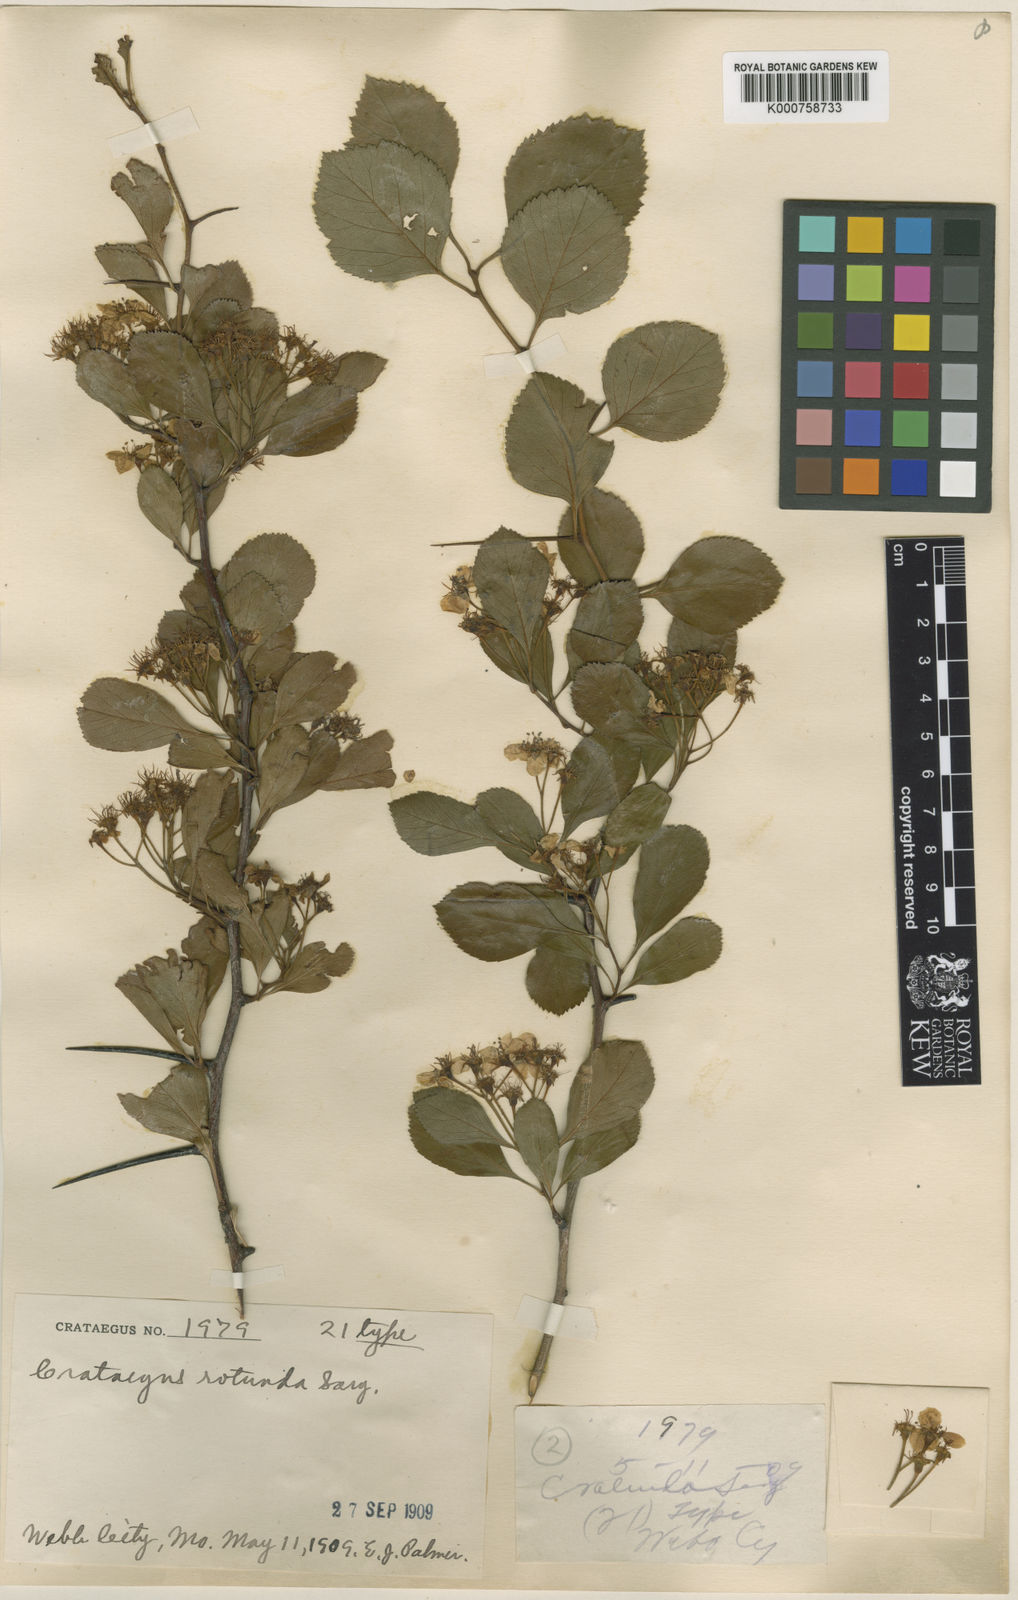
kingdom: Plantae
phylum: Tracheophyta
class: Magnoliopsida
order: Rosales
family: Rosaceae
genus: Crataegus
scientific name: Crataegus dodgei
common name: Dodge's hawthorn
